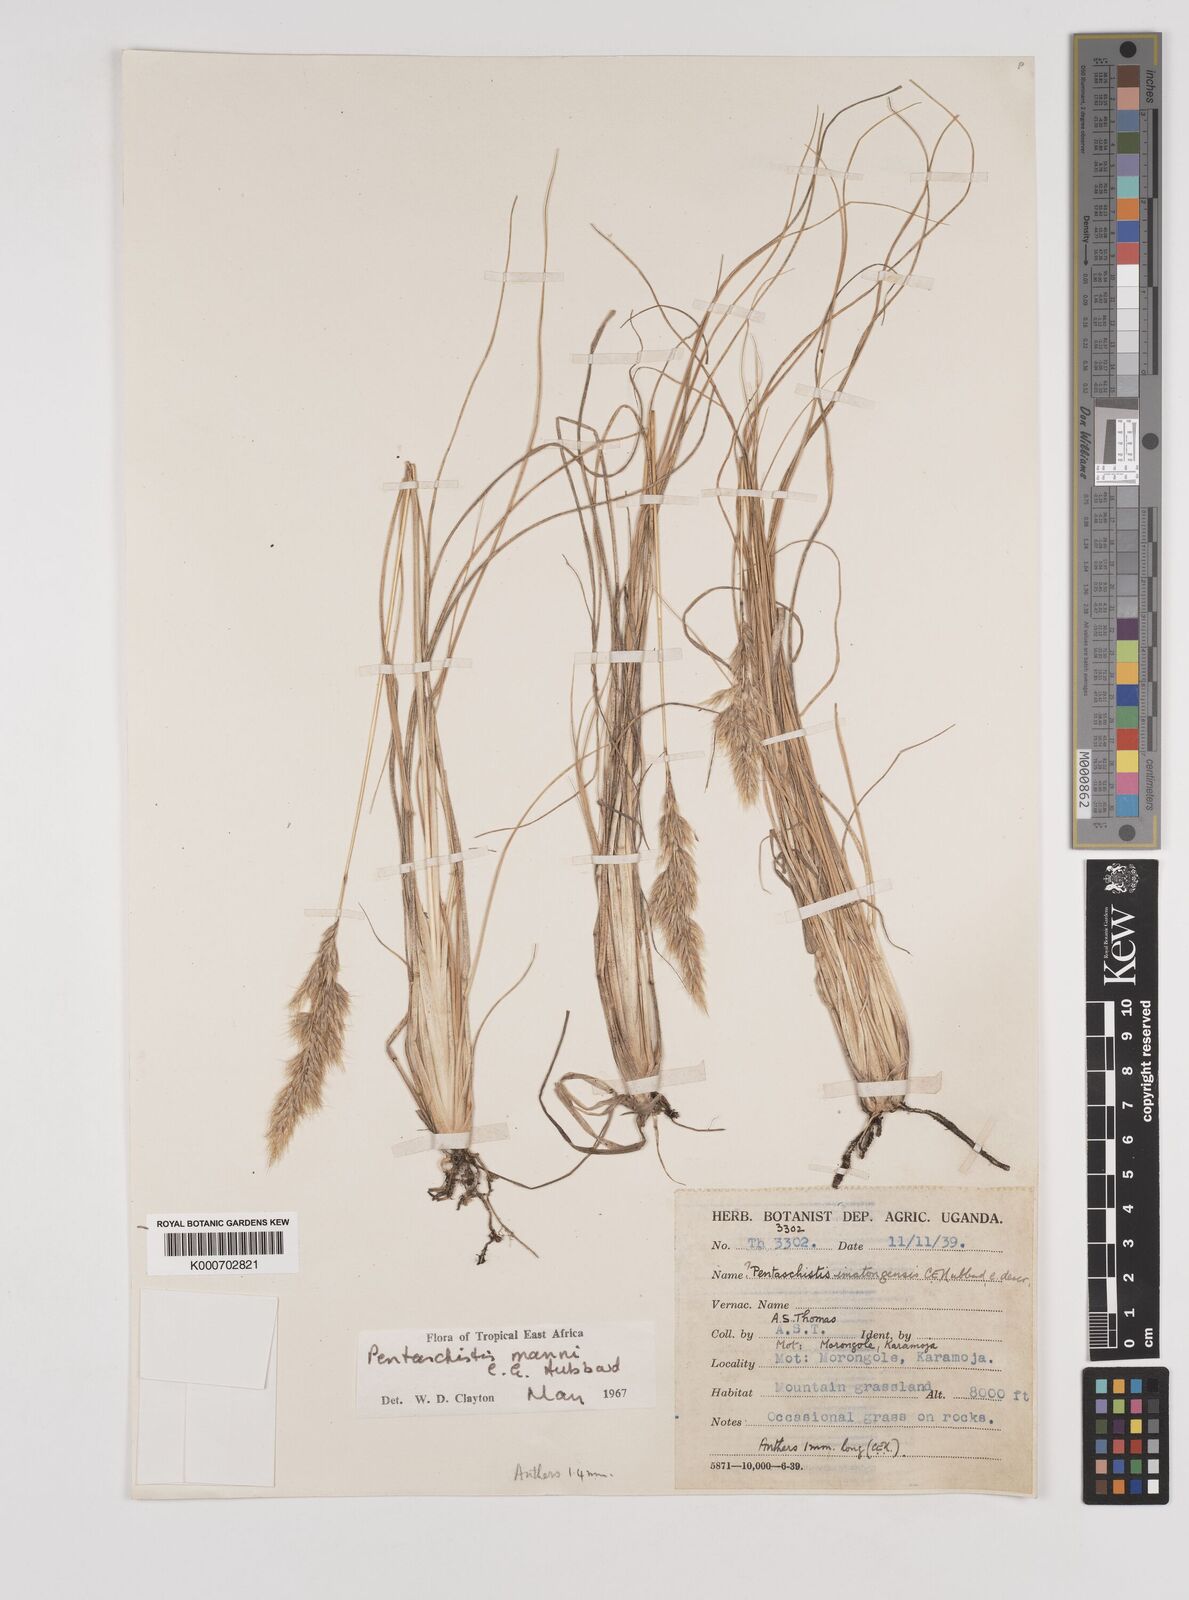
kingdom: Plantae
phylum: Tracheophyta
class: Liliopsida
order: Poales
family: Poaceae
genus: Pentameris
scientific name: Pentameris pictigluma
